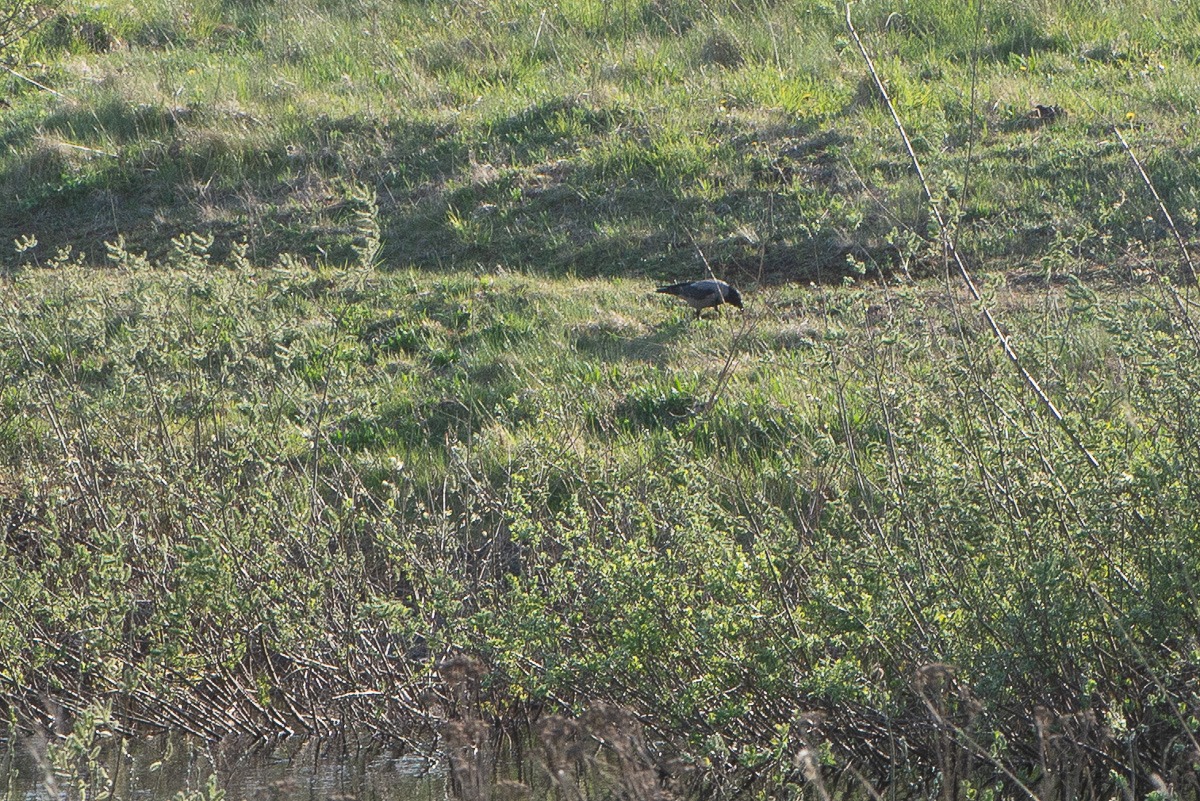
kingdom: Animalia
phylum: Chordata
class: Aves
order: Passeriformes
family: Corvidae
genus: Corvus
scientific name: Corvus cornix
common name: Gråkrage
